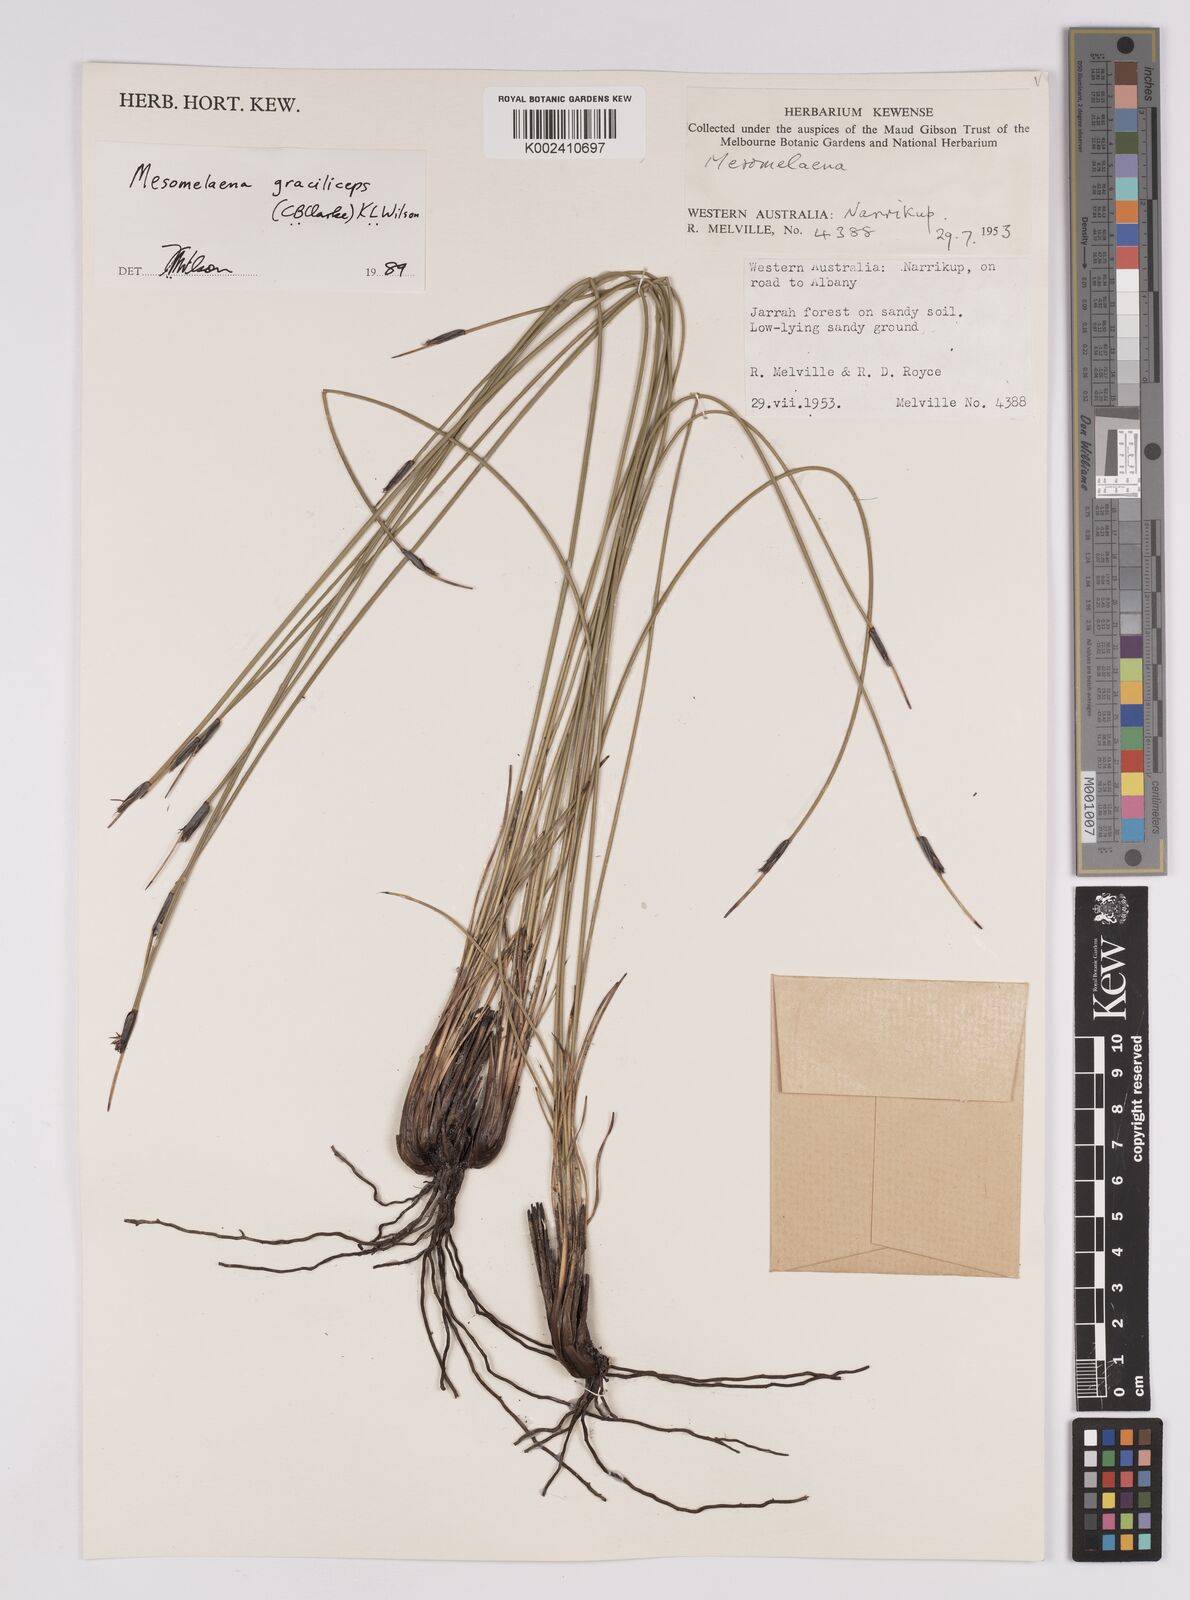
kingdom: Plantae
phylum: Tracheophyta
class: Liliopsida
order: Poales
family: Cyperaceae
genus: Mesomelaena
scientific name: Mesomelaena graciliceps
